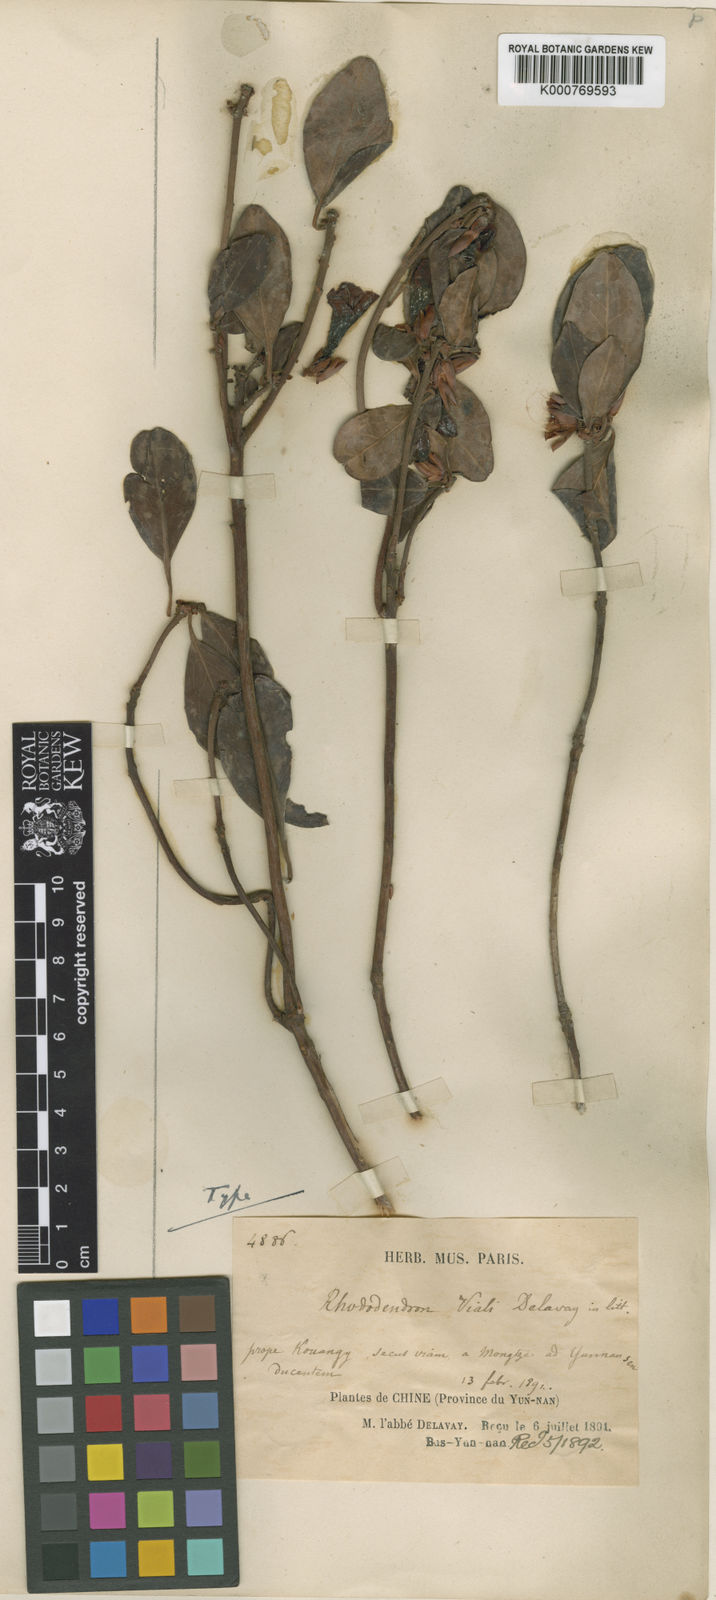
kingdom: Plantae
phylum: Tracheophyta
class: Magnoliopsida
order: Ericales
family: Ericaceae
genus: Rhododendron
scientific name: Rhododendron vialii
